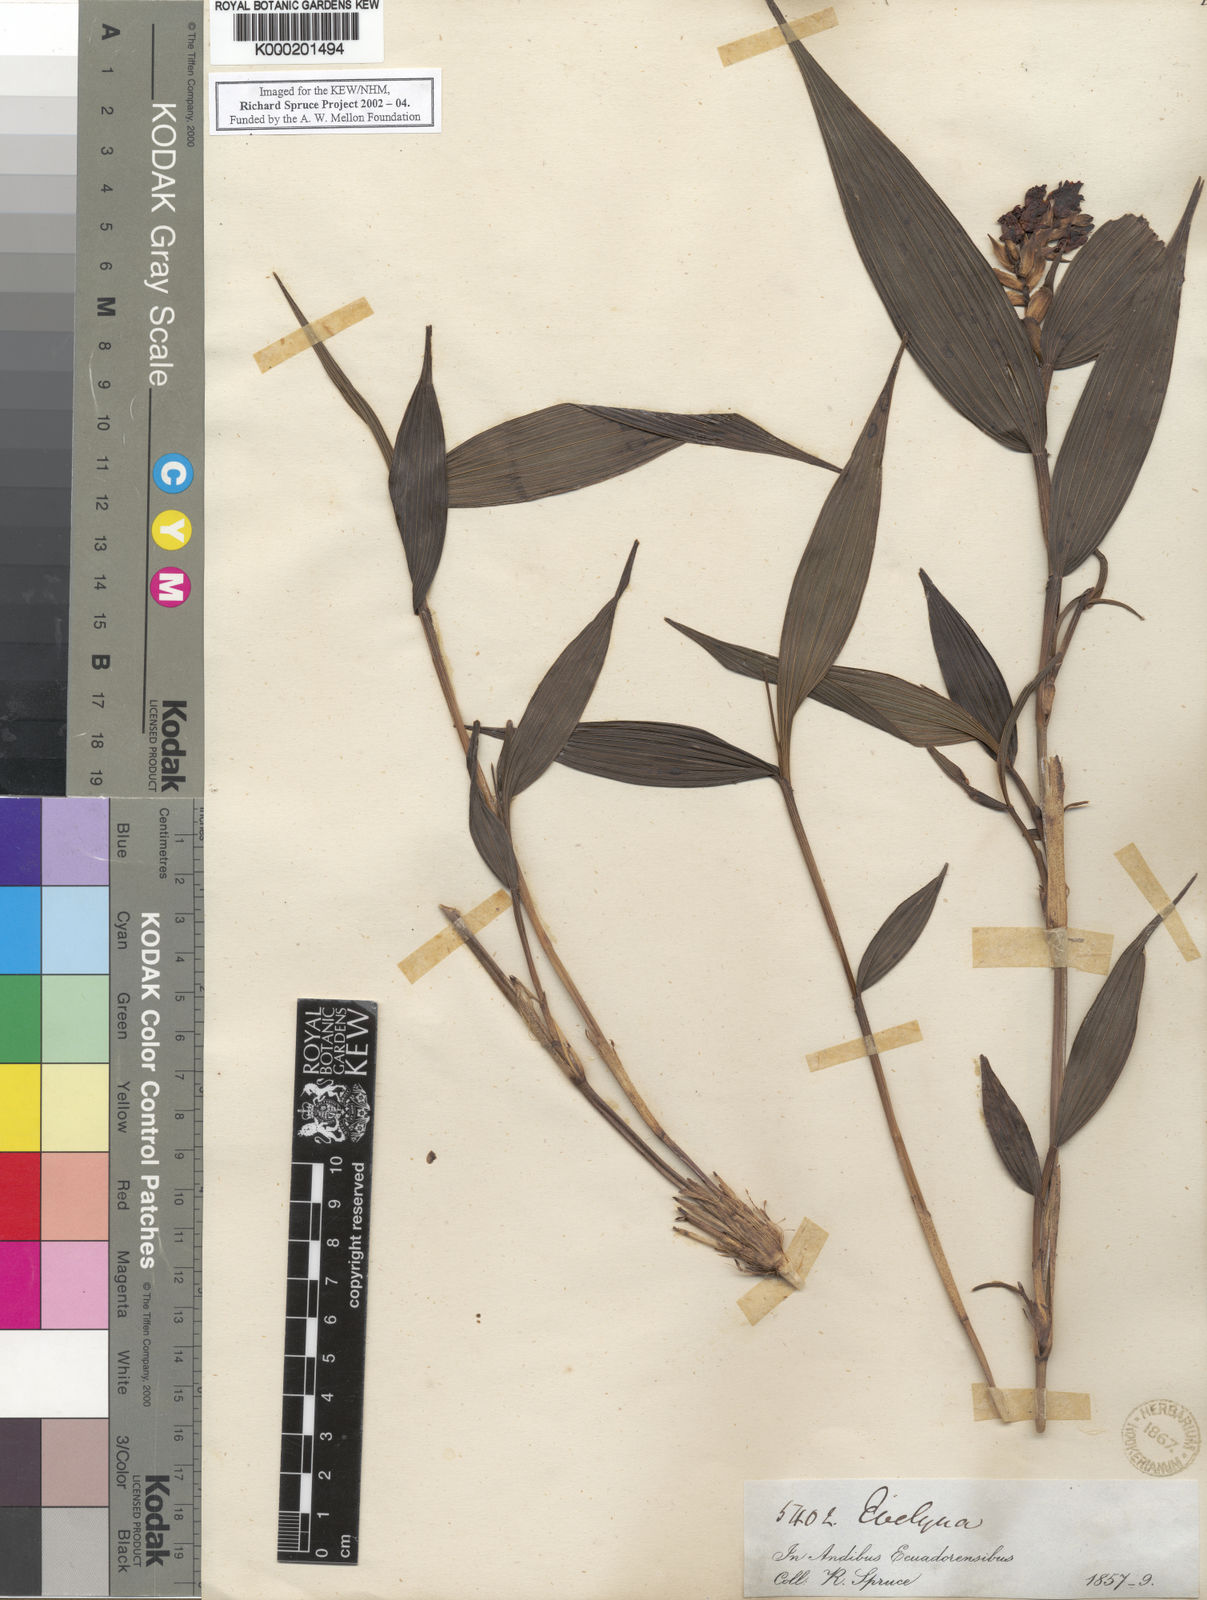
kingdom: Plantae
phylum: Tracheophyta
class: Liliopsida
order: Asparagales
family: Orchidaceae
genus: Elleanthus
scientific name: Elleanthus aurantiacus
